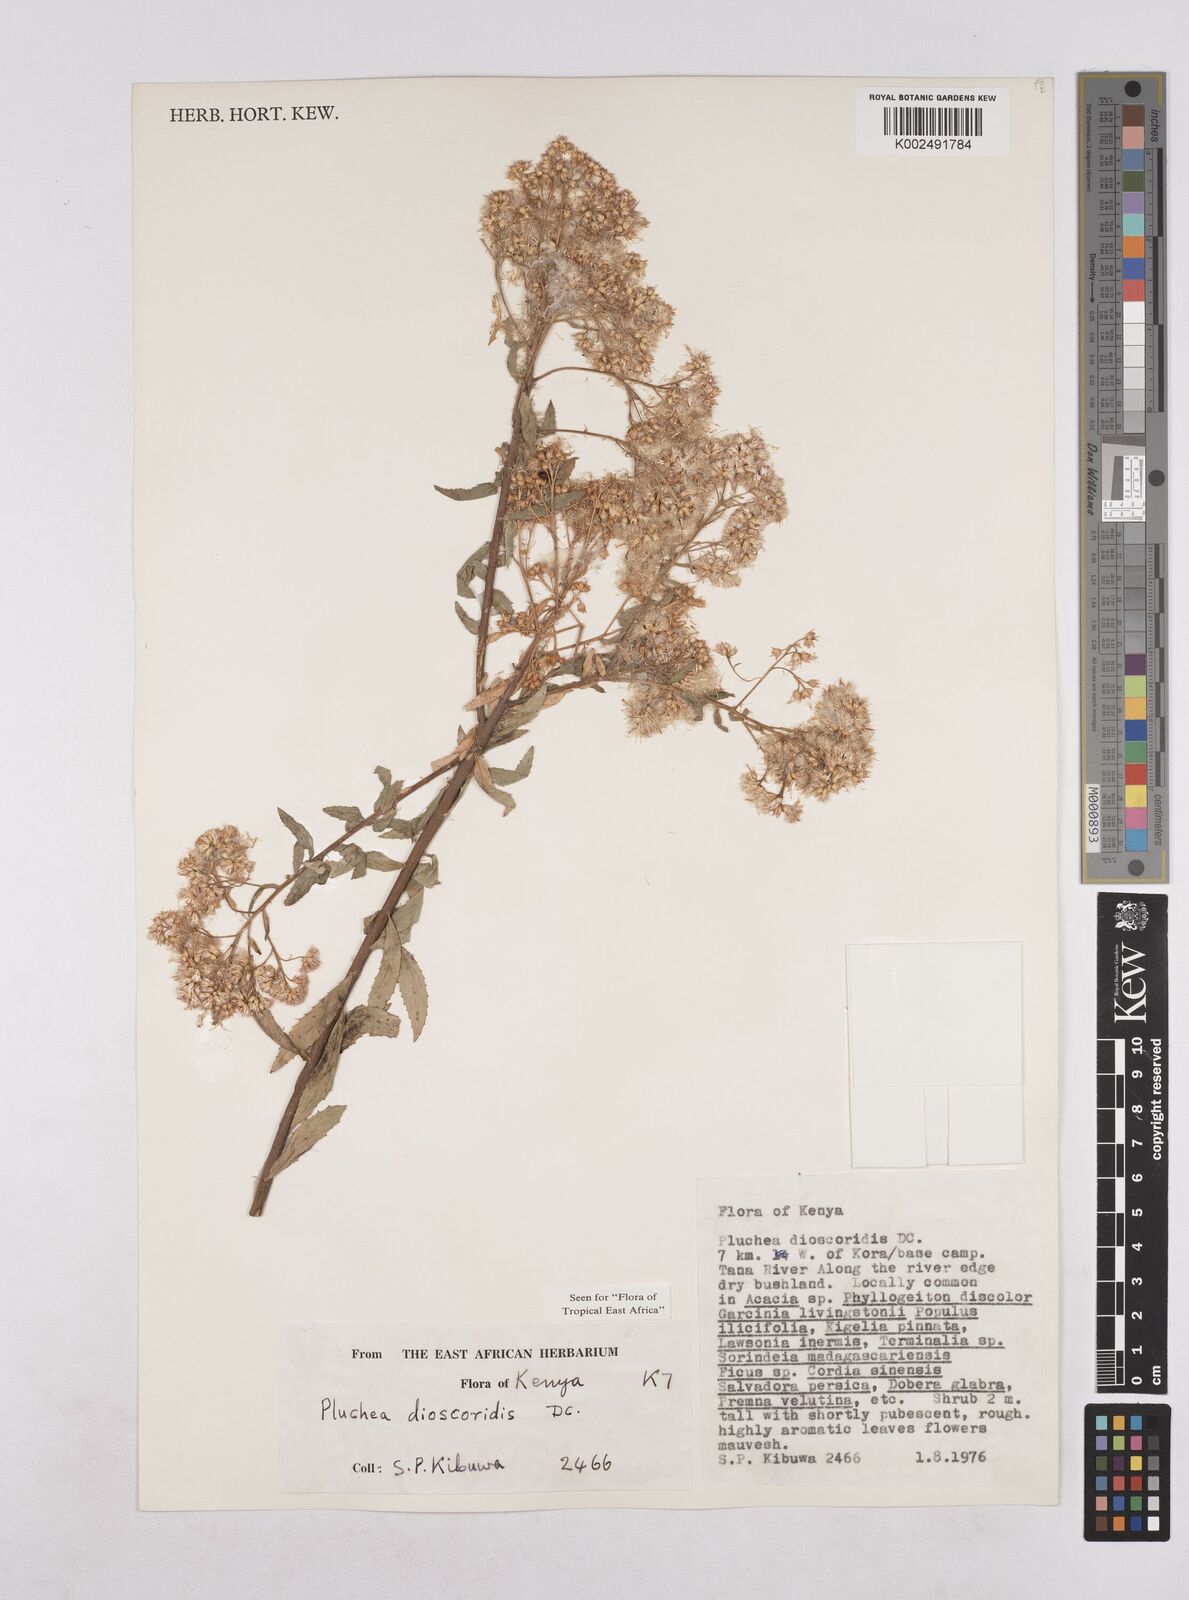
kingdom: Plantae
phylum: Tracheophyta
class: Magnoliopsida
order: Asterales
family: Asteraceae
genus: Pluchea
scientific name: Pluchea dioscoridis
